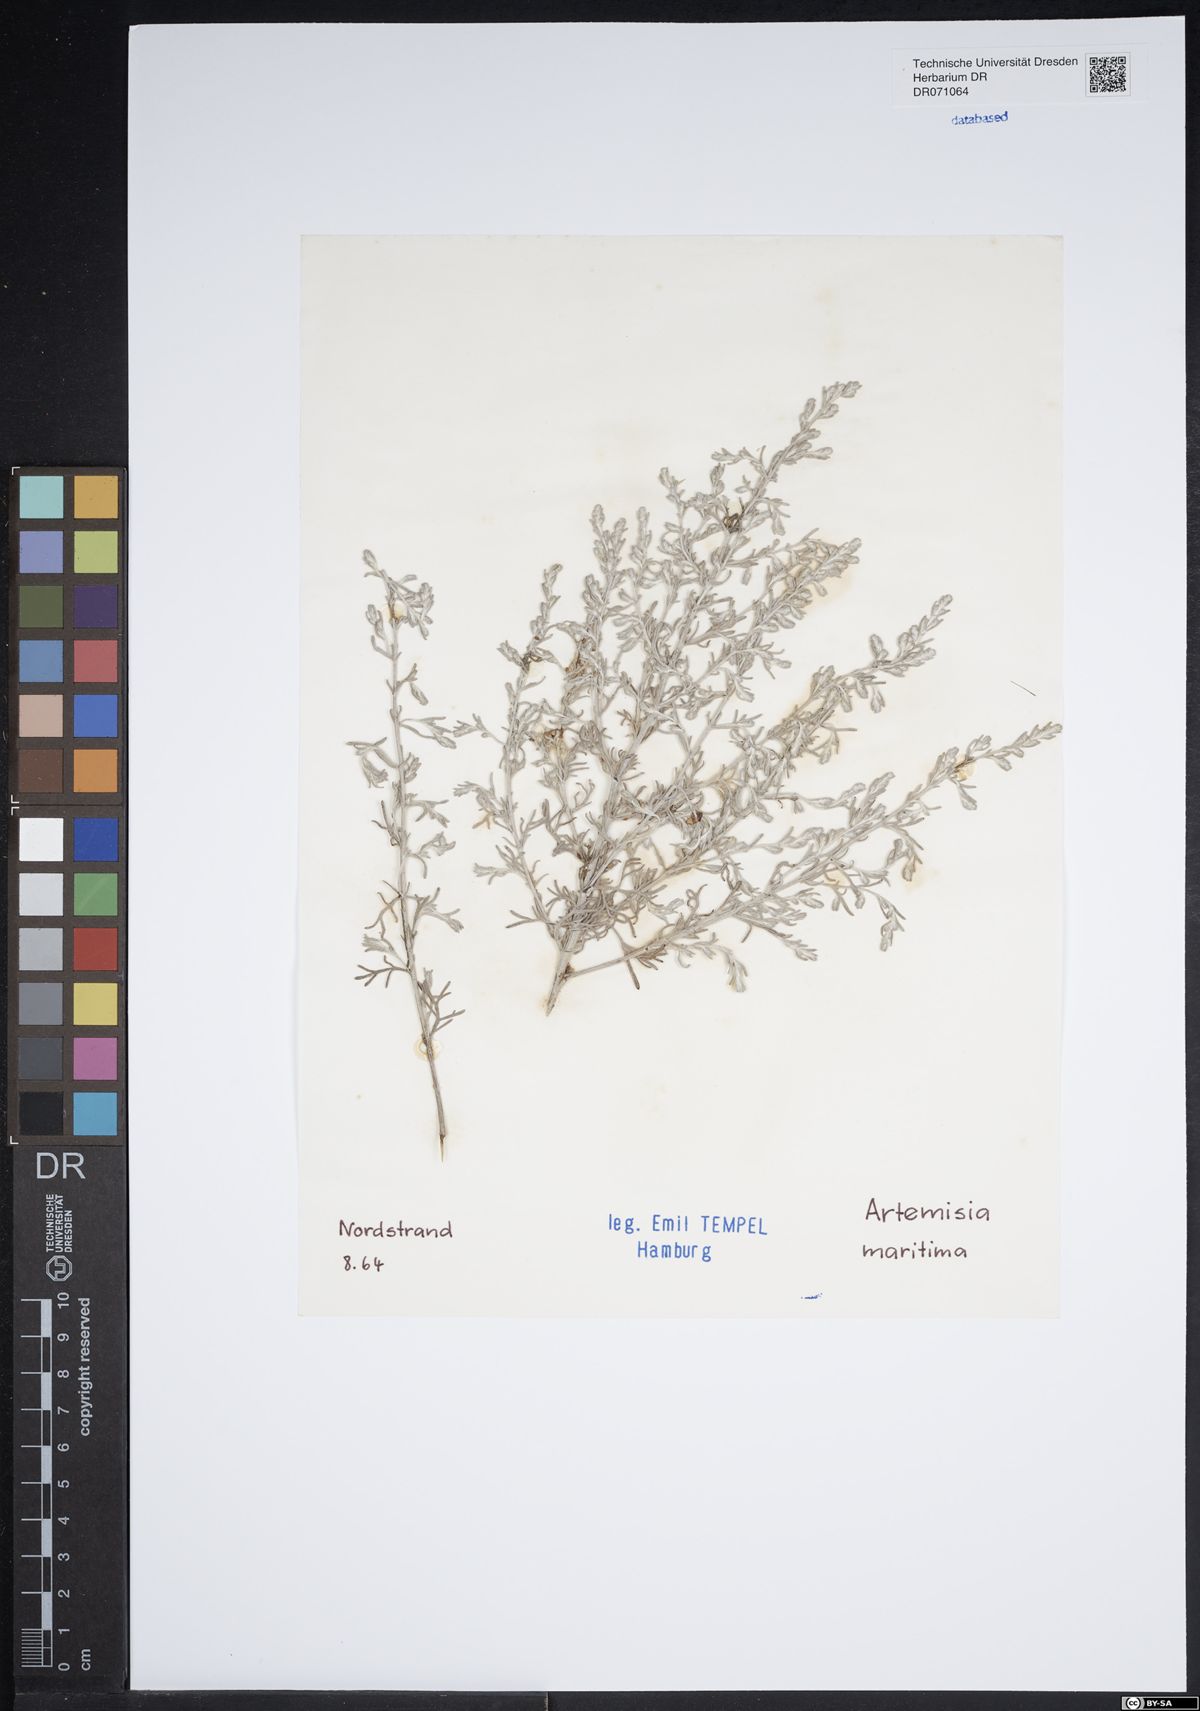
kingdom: Plantae
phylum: Tracheophyta
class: Magnoliopsida
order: Asterales
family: Asteraceae
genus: Artemisia
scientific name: Artemisia maritima
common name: Wormseed
